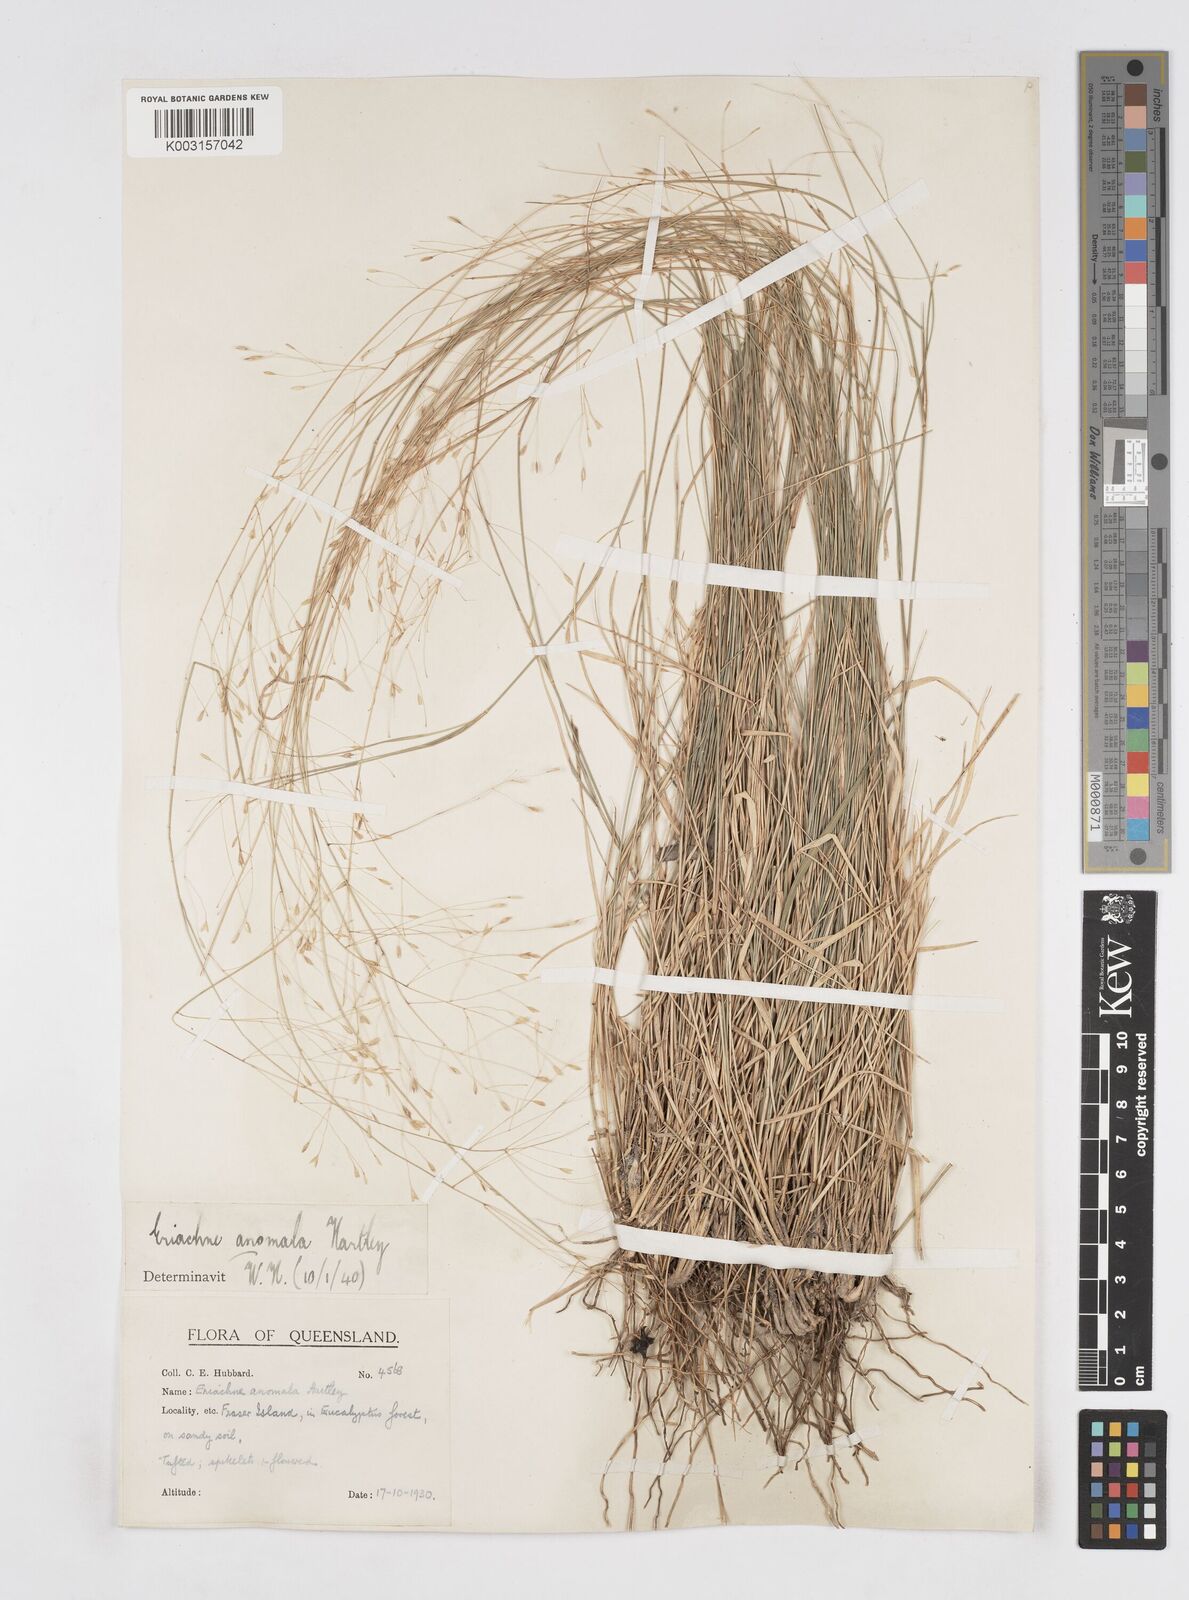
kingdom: Plantae
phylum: Tracheophyta
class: Liliopsida
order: Poales
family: Poaceae
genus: Eriachne
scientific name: Eriachne pallescens
